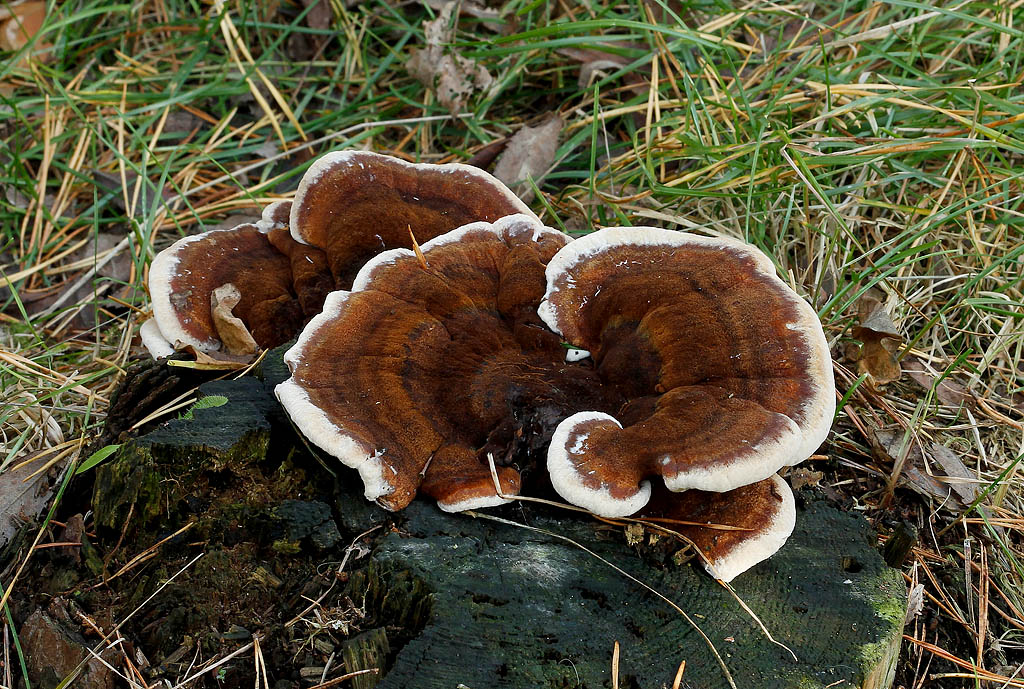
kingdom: Fungi
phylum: Basidiomycota
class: Agaricomycetes
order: Polyporales
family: Ischnodermataceae
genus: Ischnoderma
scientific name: Ischnoderma benzoinum
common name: gran-tjæreporesvamp
